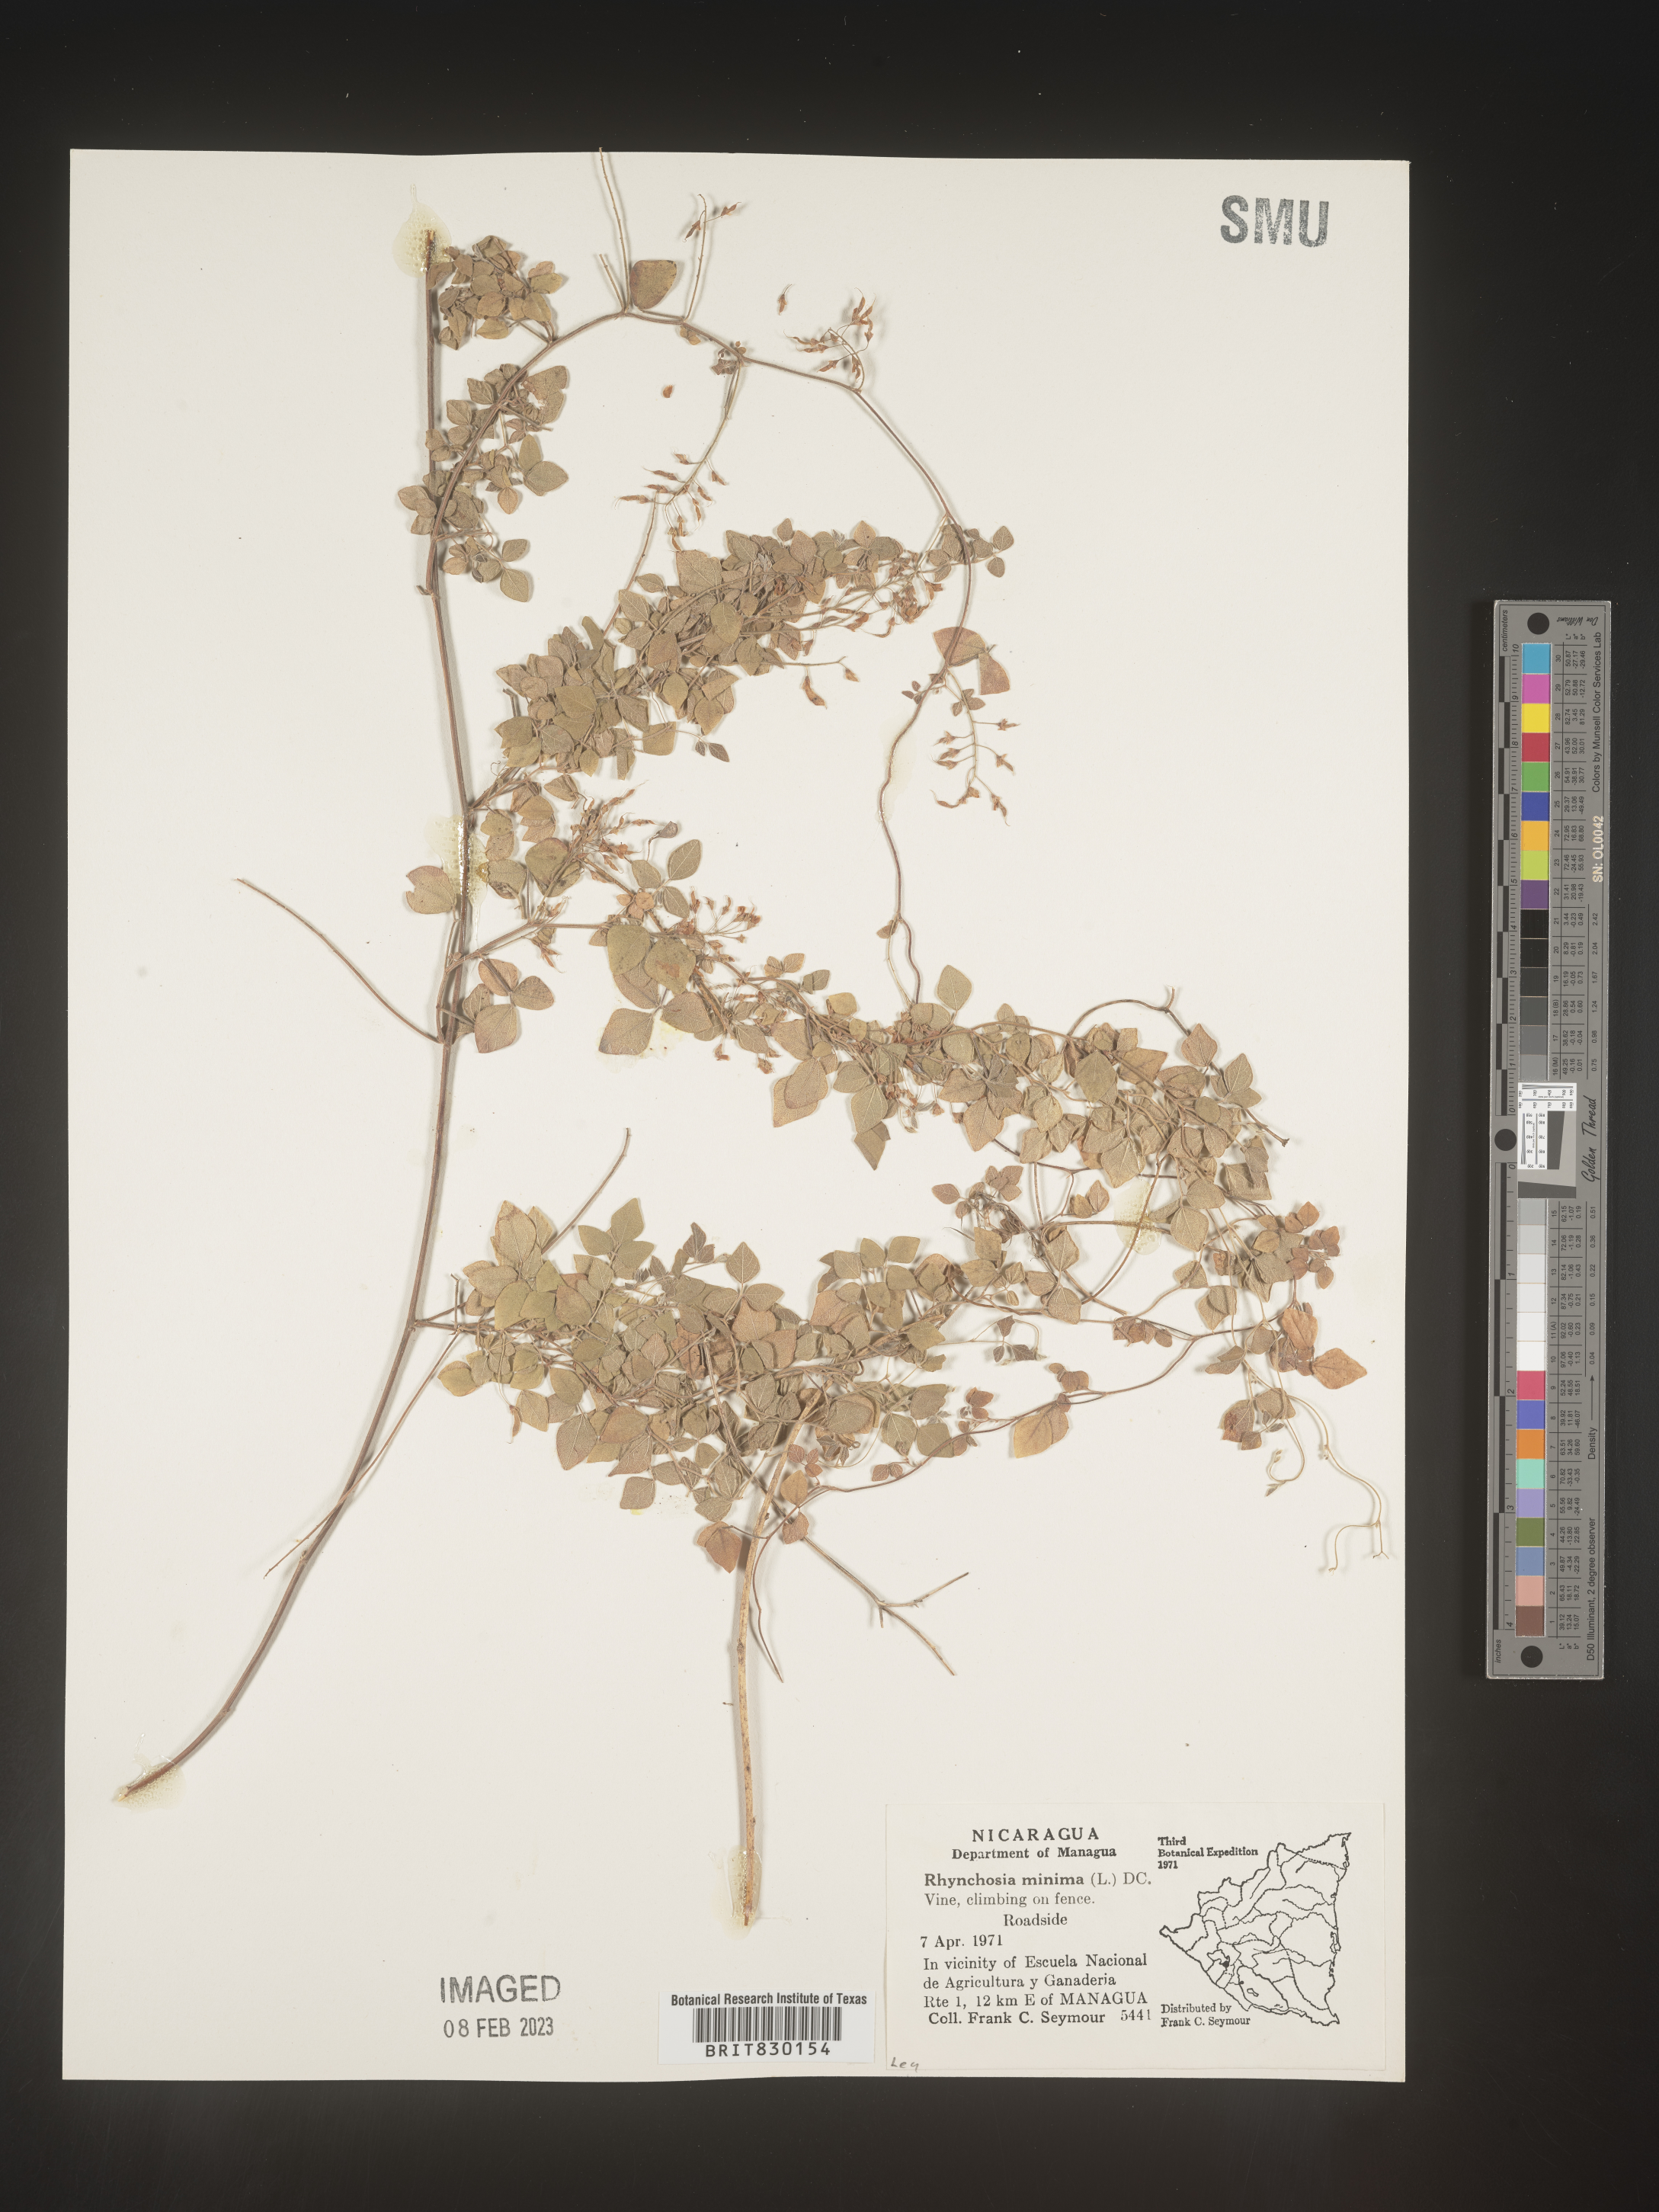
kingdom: Plantae
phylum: Tracheophyta
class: Magnoliopsida
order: Fabales
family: Fabaceae
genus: Rhynchosia
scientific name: Rhynchosia
